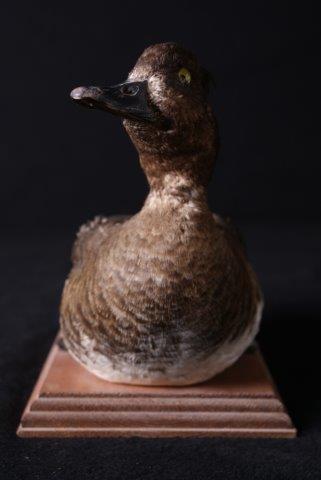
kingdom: Animalia
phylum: Chordata
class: Aves
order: Anseriformes
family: Anatidae
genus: Aythya
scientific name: Aythya fuligula
